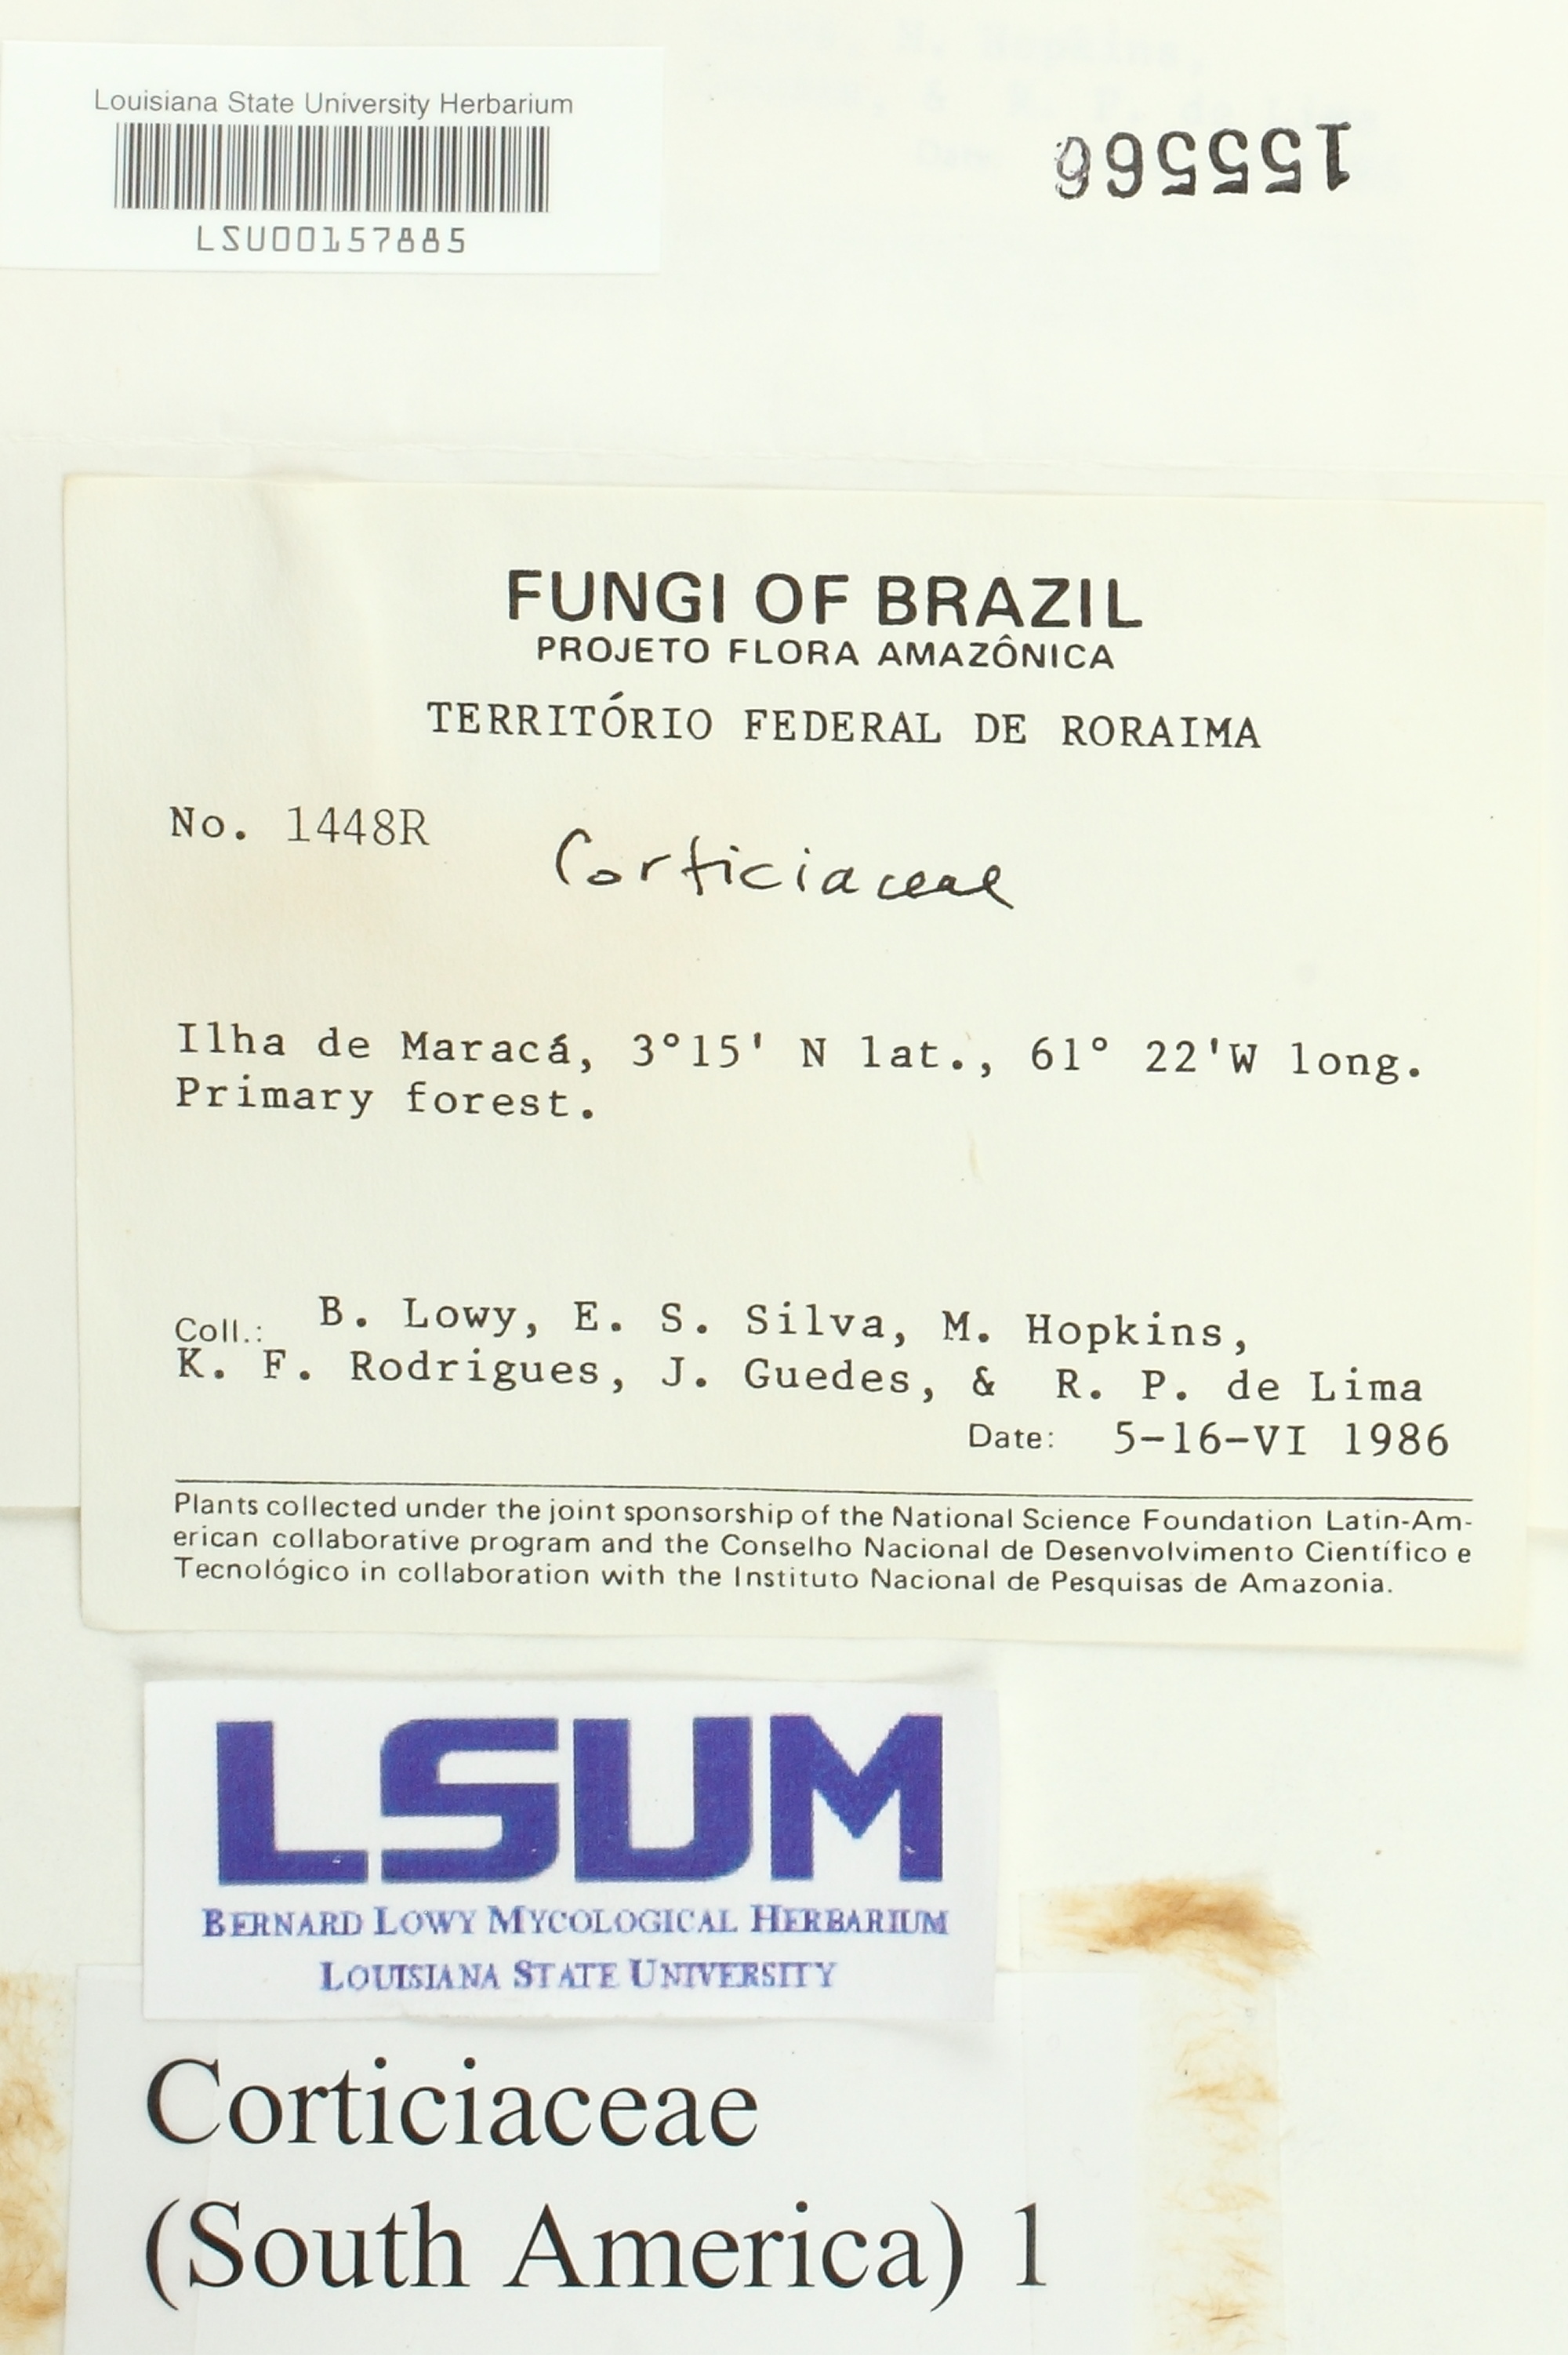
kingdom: Fungi
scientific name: Fungi
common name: Fungi
